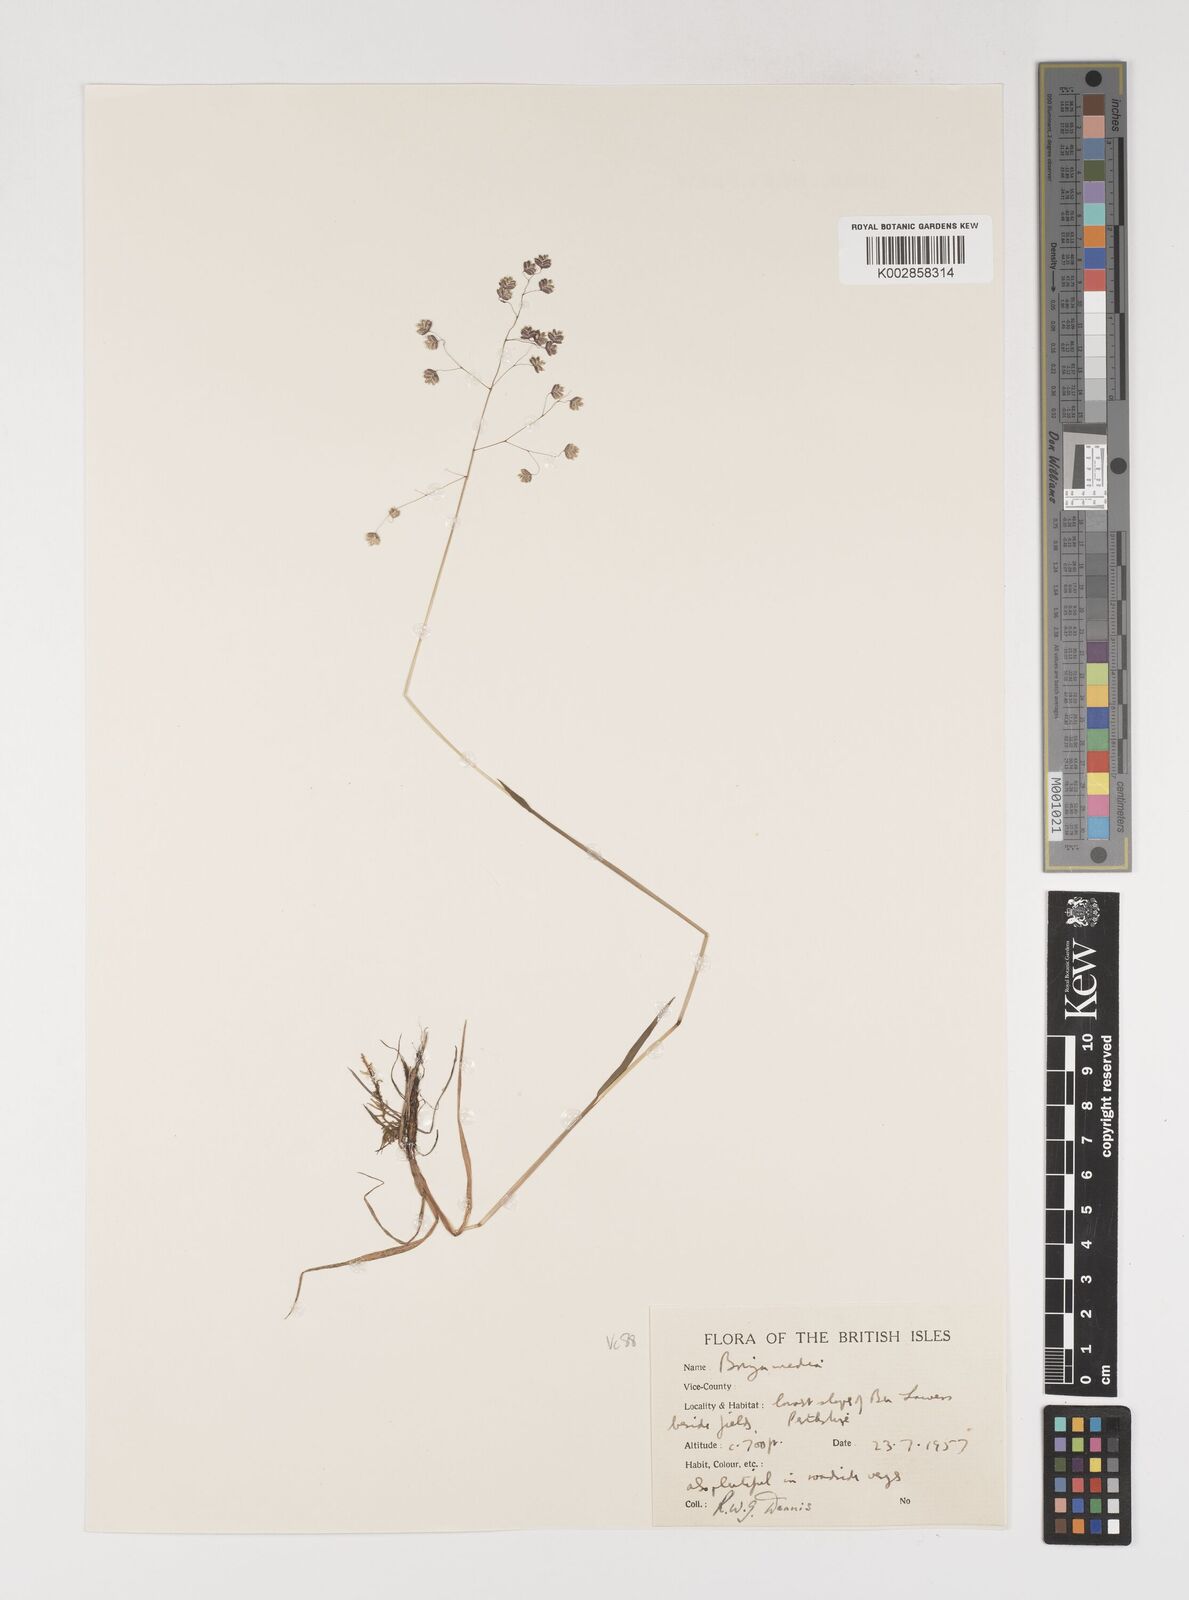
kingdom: Plantae
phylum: Tracheophyta
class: Liliopsida
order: Poales
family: Poaceae
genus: Briza
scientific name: Briza media
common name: Quaking grass
